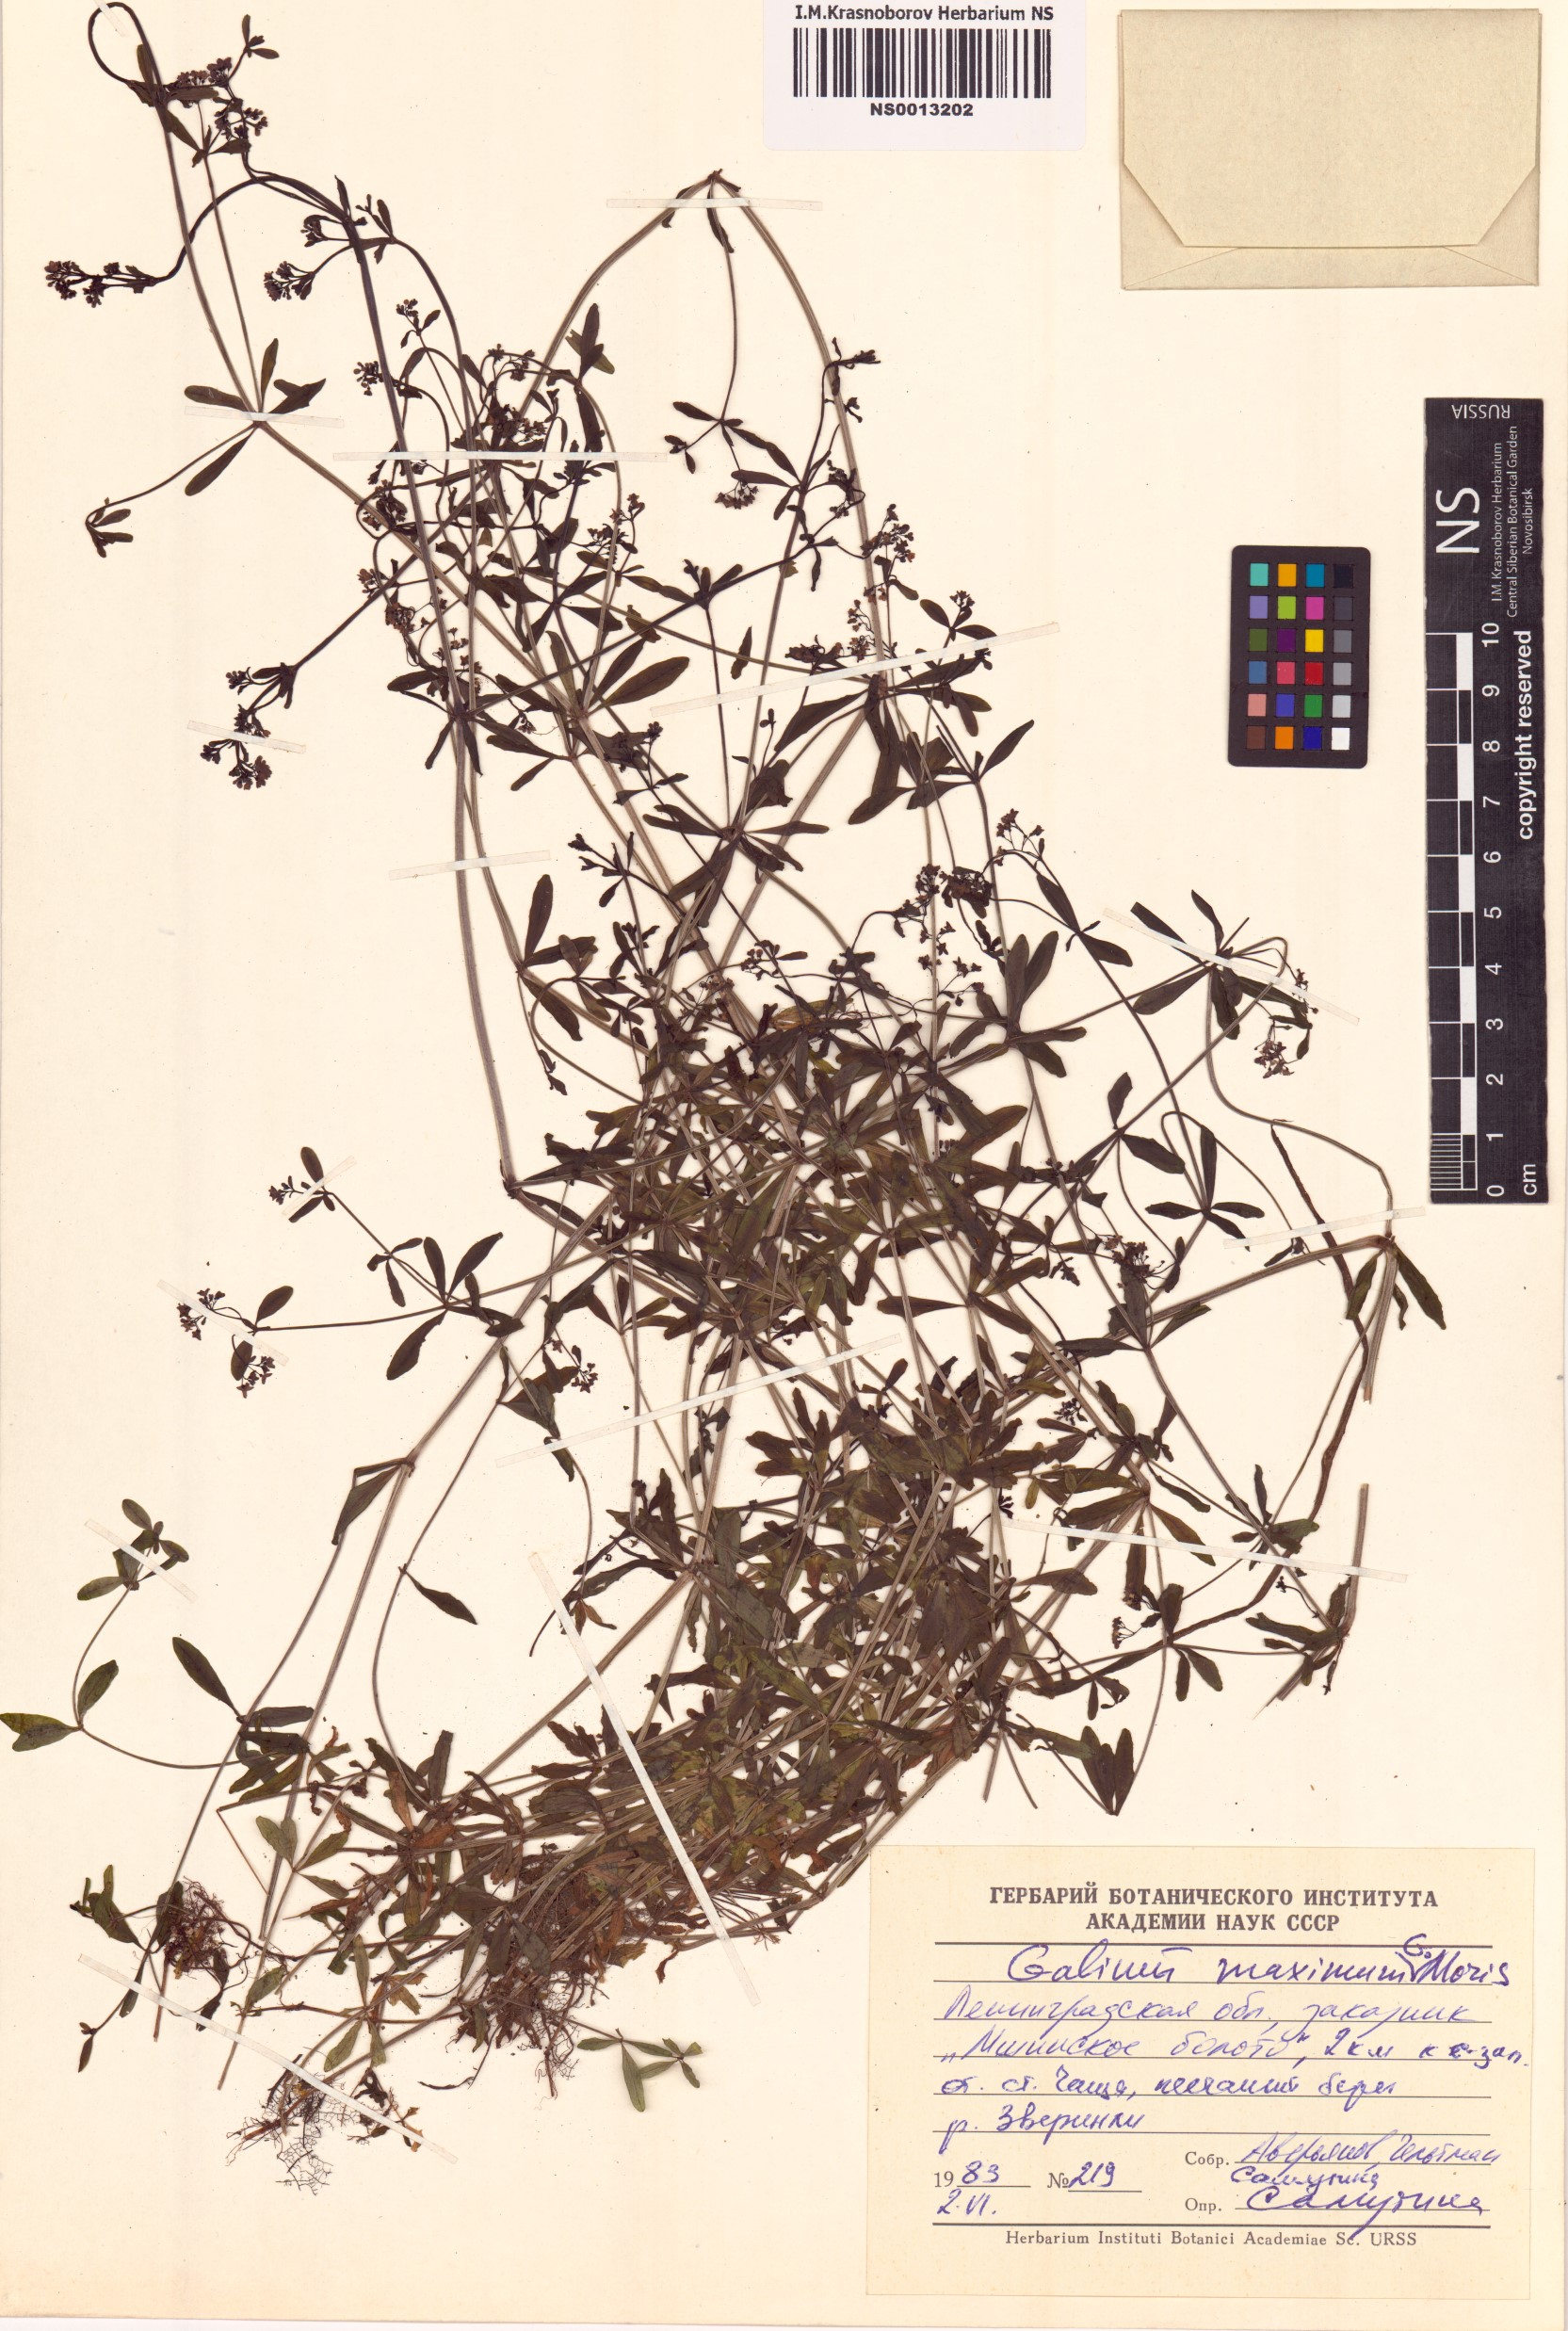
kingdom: Plantae
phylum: Tracheophyta
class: Magnoliopsida
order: Gentianales
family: Rubiaceae
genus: Galium
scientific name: Galium elongatum
